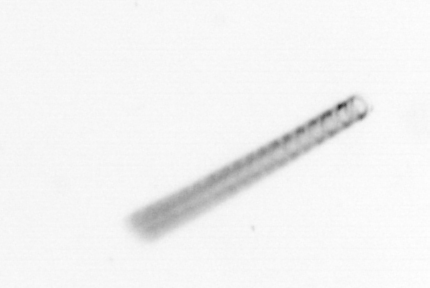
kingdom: Chromista
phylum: Ochrophyta
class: Bacillariophyceae
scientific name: Bacillariophyceae
